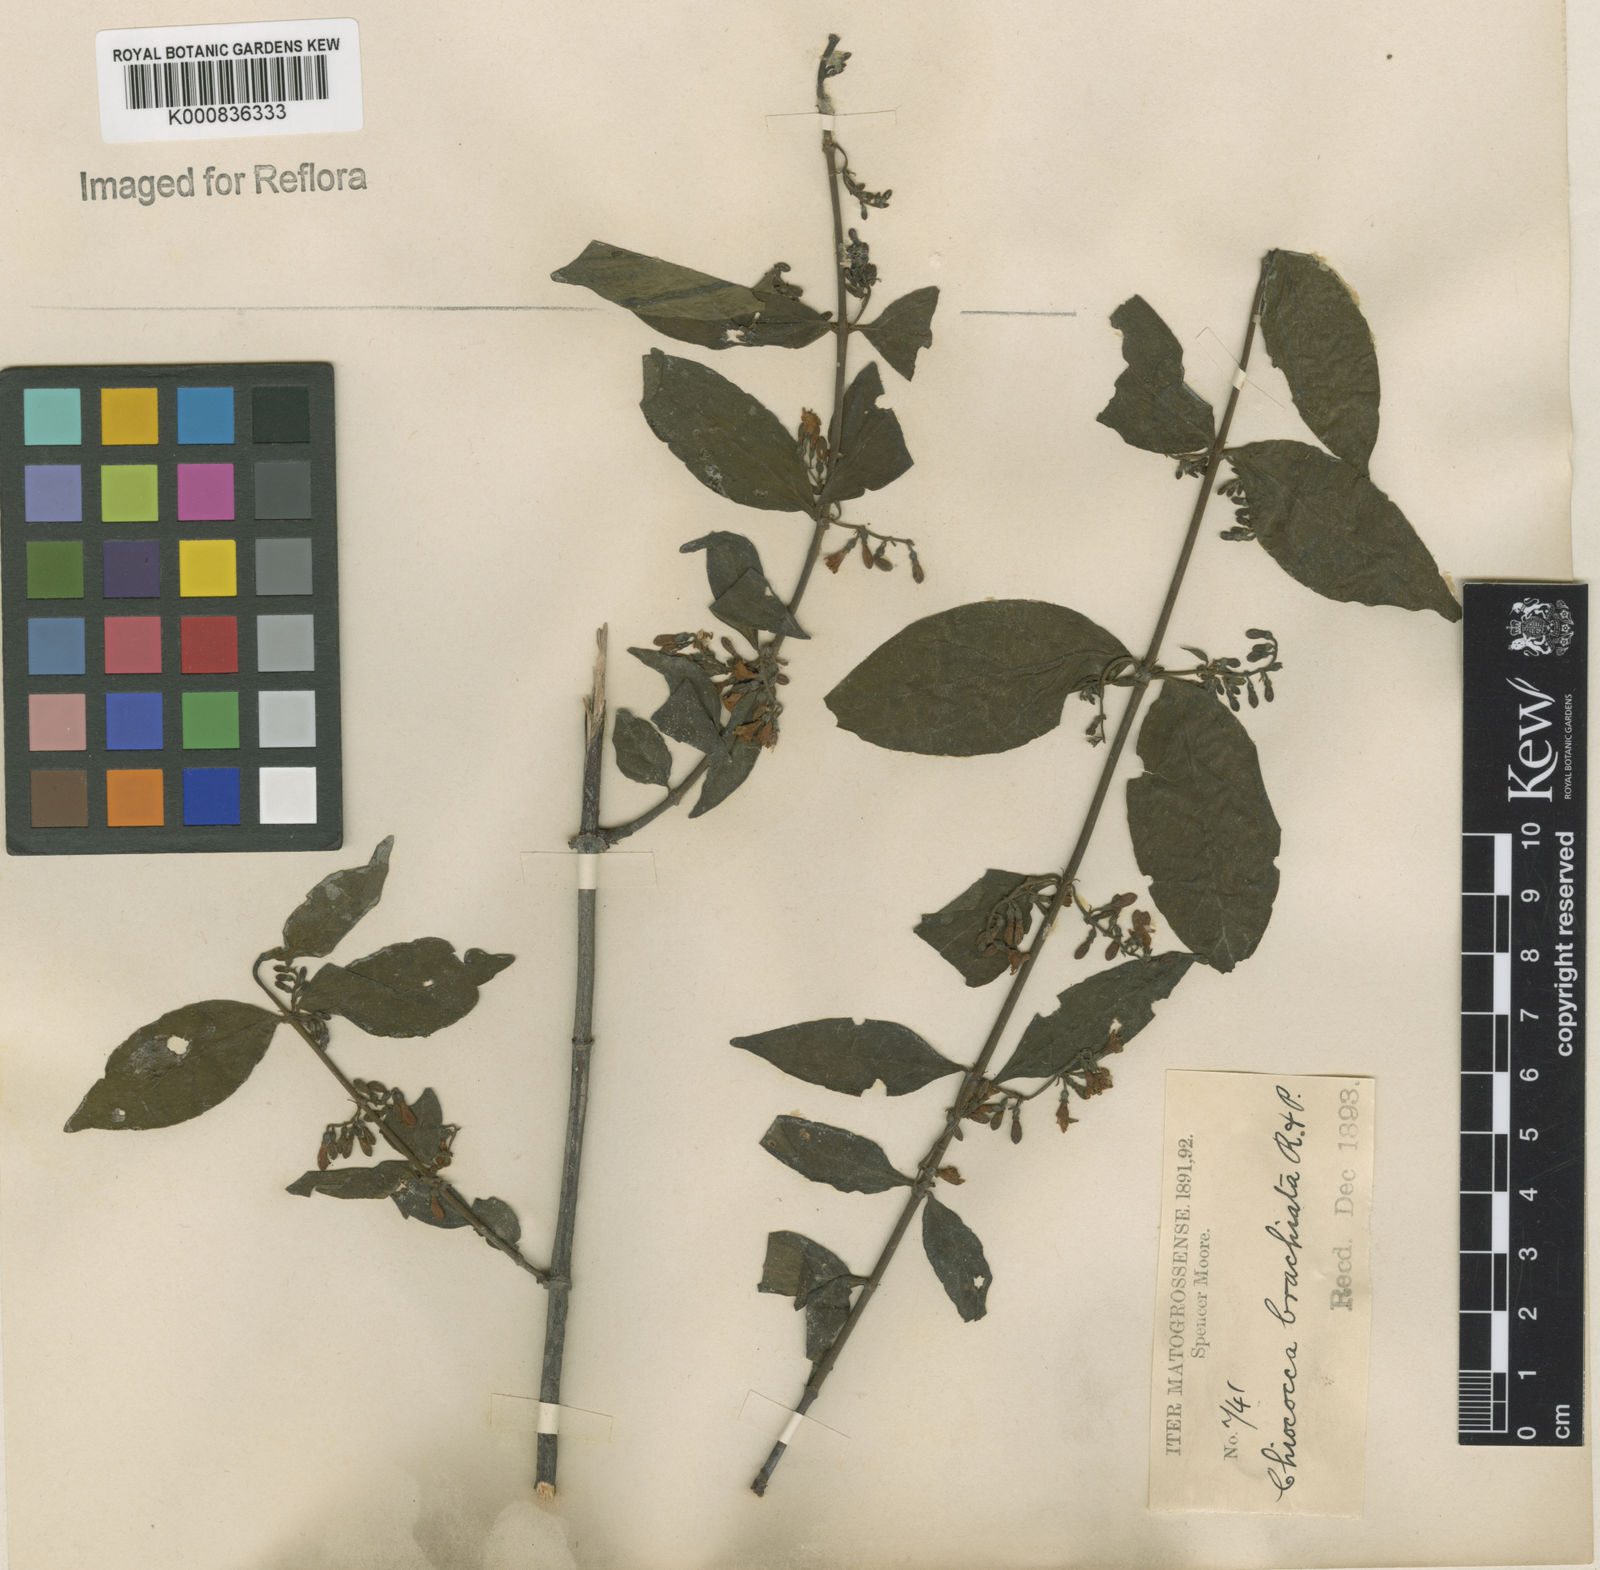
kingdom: Plantae
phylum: Tracheophyta
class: Magnoliopsida
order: Gentianales
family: Rubiaceae
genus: Chiococca
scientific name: Chiococca alba
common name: Snowberry
